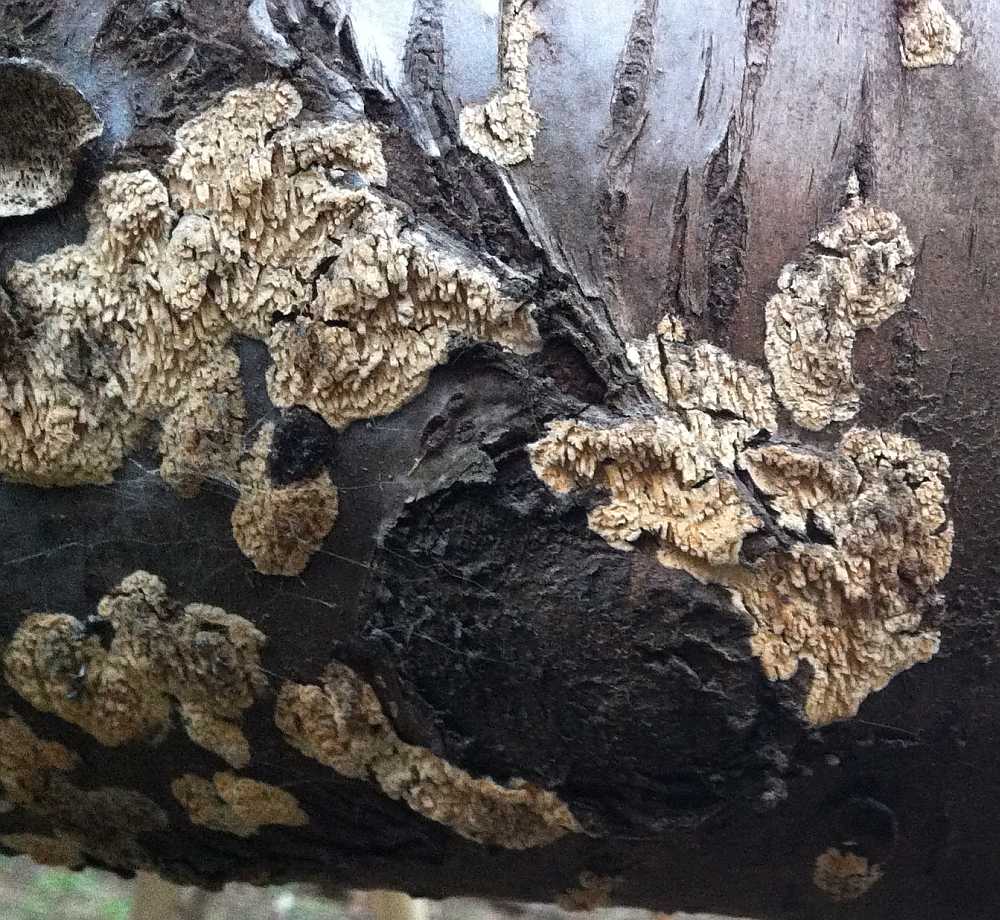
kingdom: Fungi
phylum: Basidiomycota
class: Agaricomycetes
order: Hymenochaetales
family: Schizoporaceae
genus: Xylodon
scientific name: Xylodon radula
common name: grovtandet kalkskind
